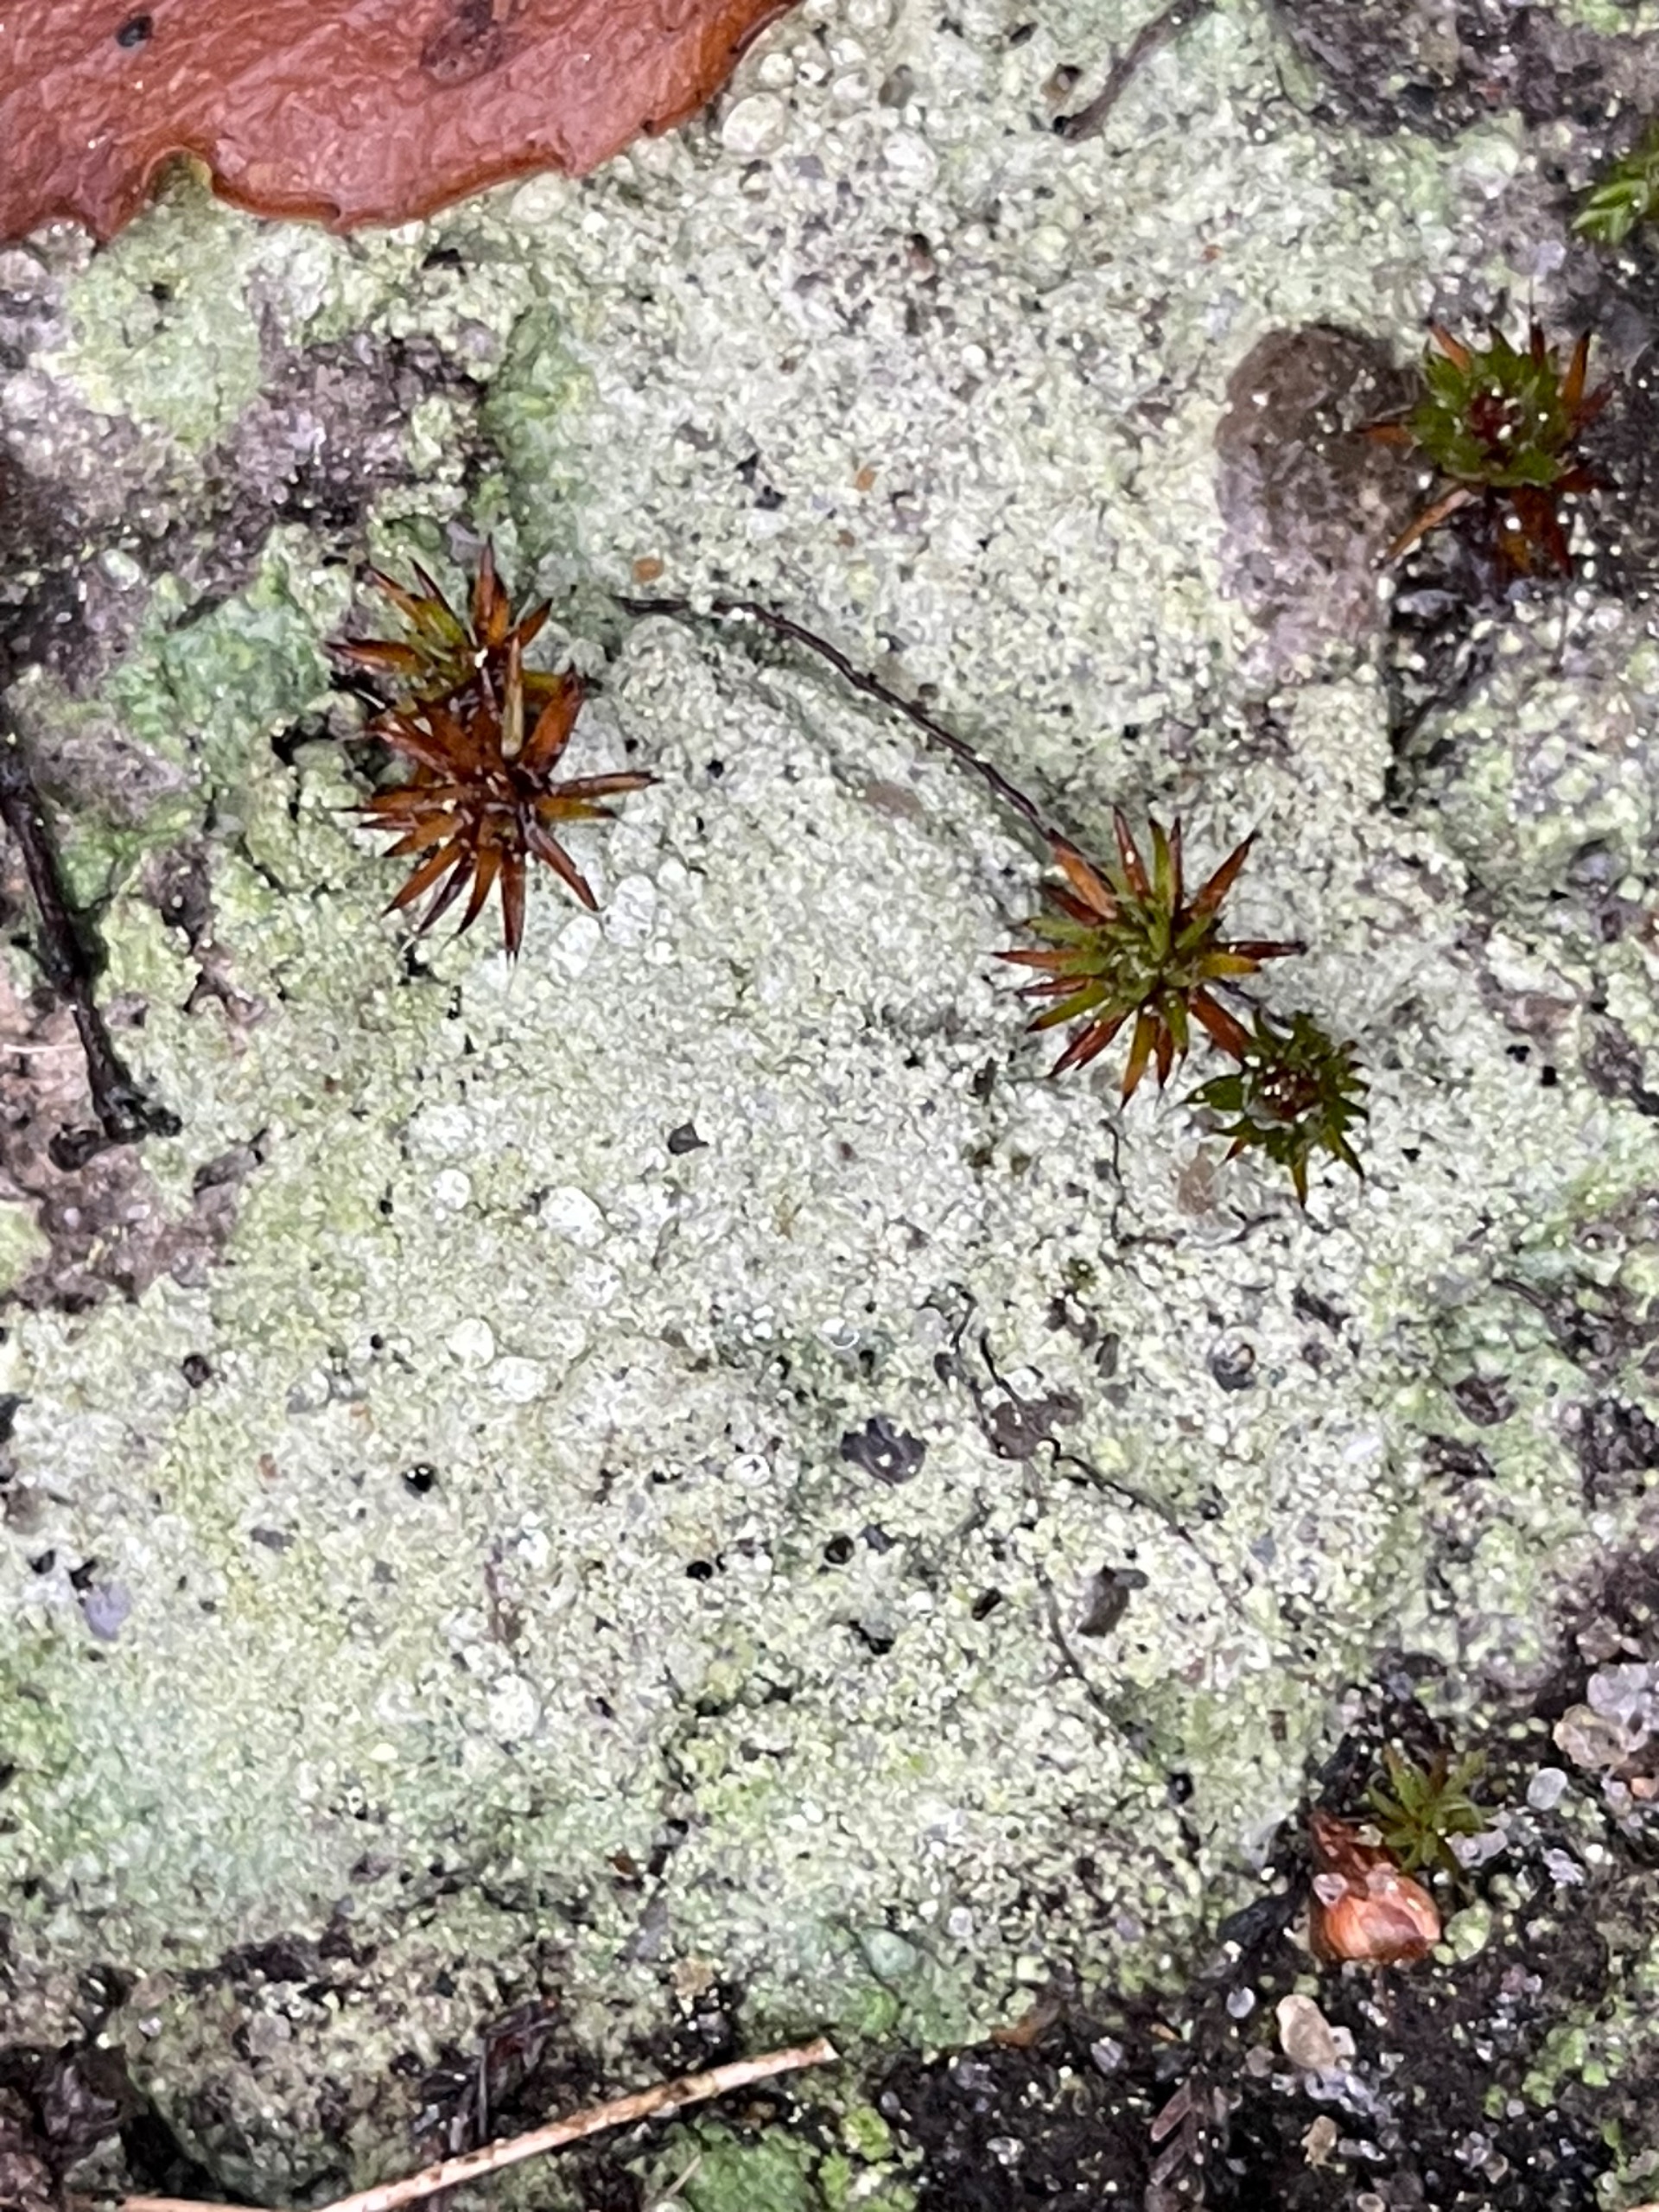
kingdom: Fungi
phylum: Ascomycota
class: Lecanoromycetes
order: Baeomycetales
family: Baeomycetaceae
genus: Baeomyces
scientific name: Baeomyces rufus
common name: Rødbrun svampelav
